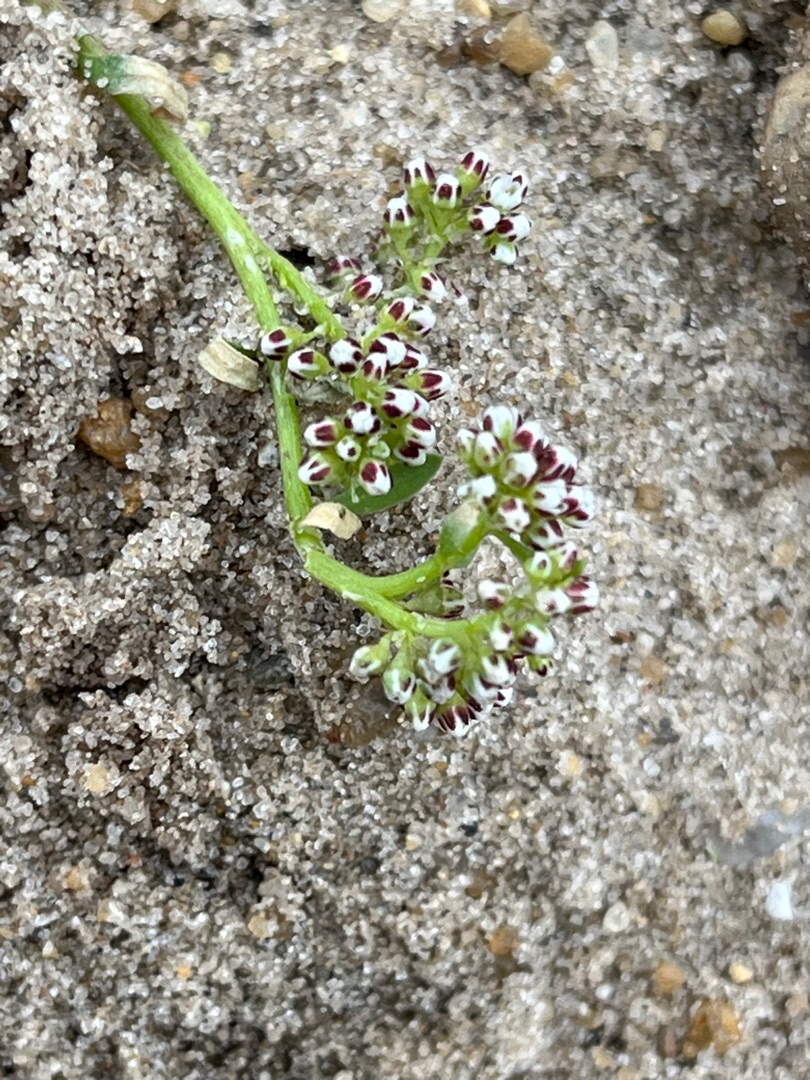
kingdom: Plantae
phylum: Tracheophyta
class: Magnoliopsida
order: Caryophyllales
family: Caryophyllaceae
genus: Corrigiola
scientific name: Corrigiola litoralis
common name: Skorem
